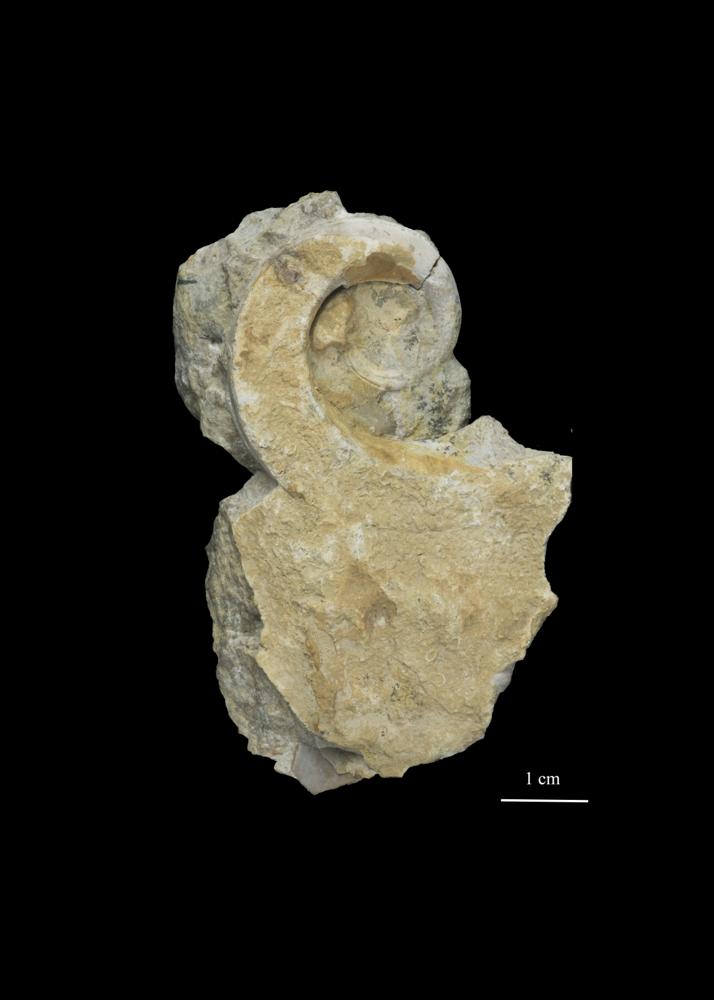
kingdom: Animalia
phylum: Mollusca
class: Gastropoda
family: Lesueurillidae
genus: Eccyliopterus
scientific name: Eccyliopterus regularis
